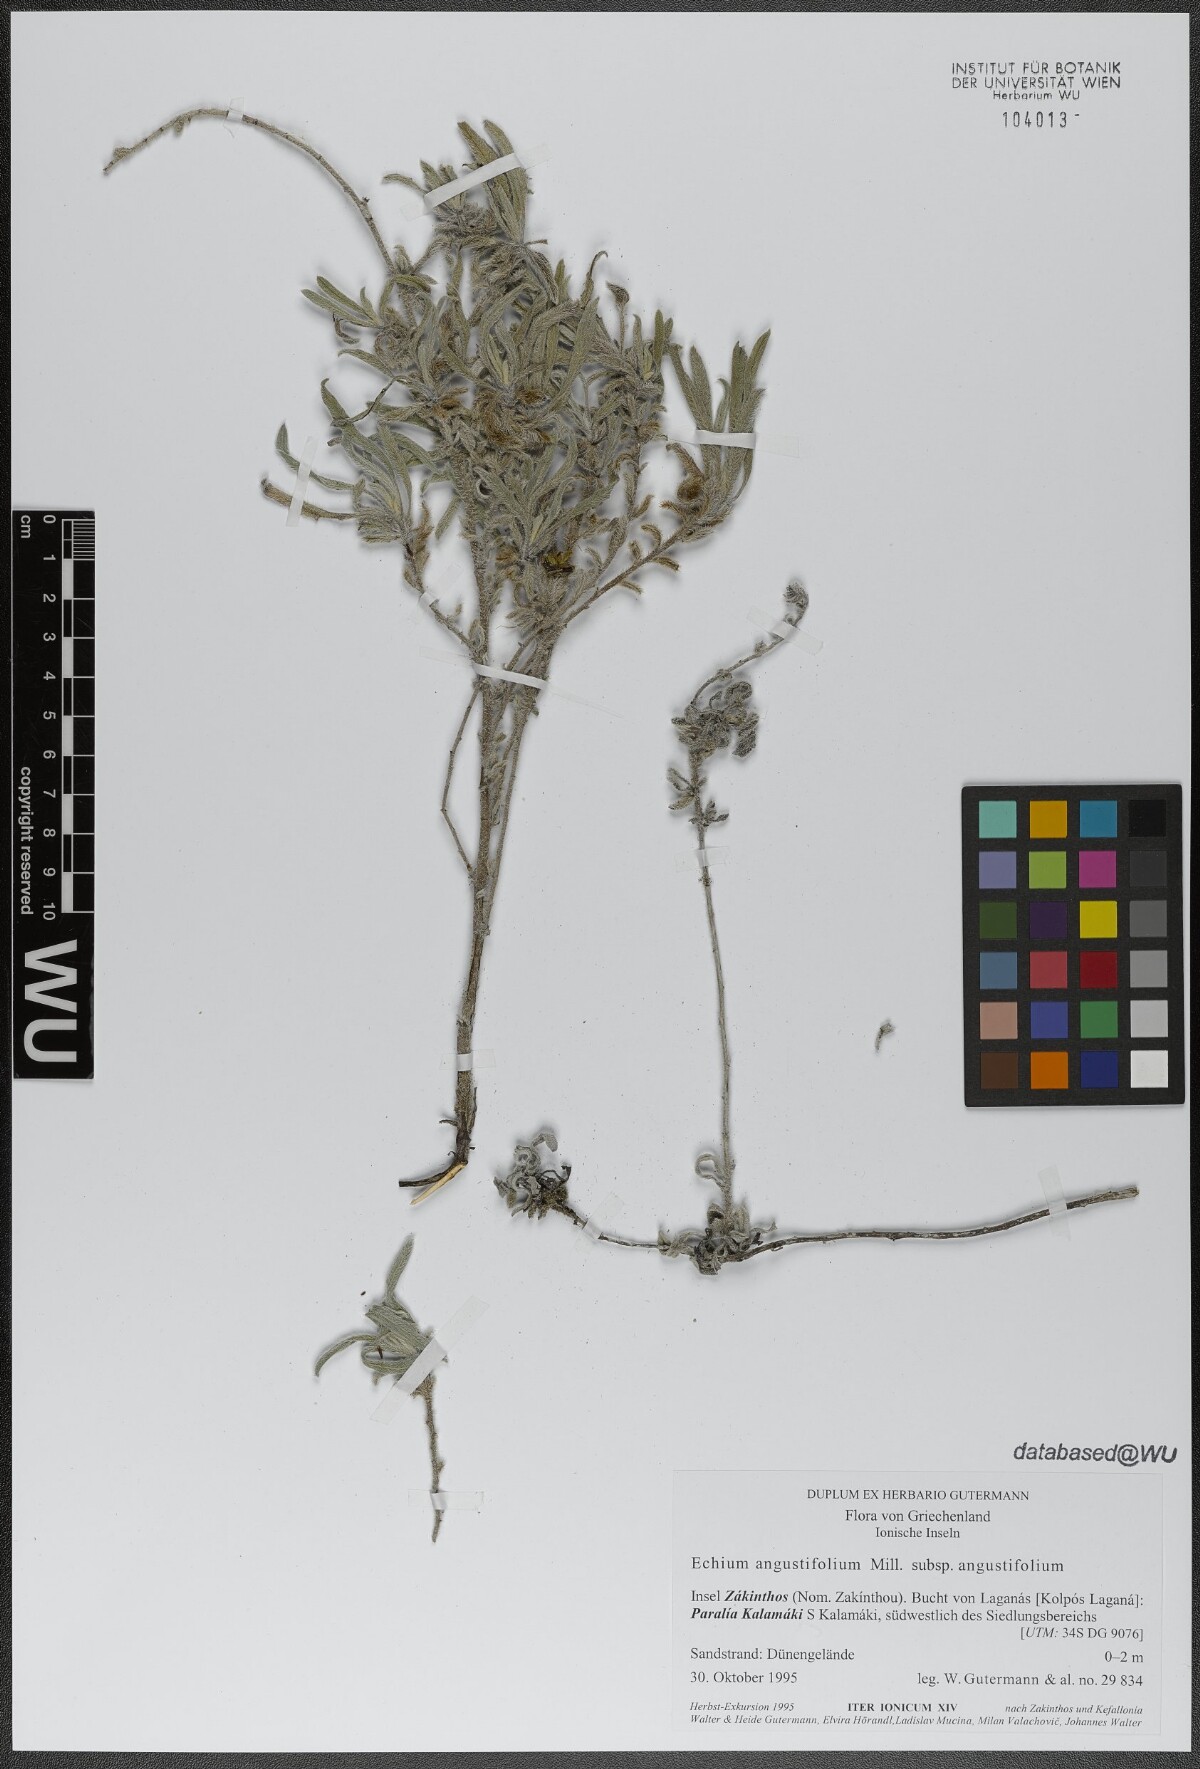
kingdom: Plantae
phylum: Tracheophyta
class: Magnoliopsida
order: Boraginales
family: Boraginaceae
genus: Echium
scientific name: Echium angustifolium
